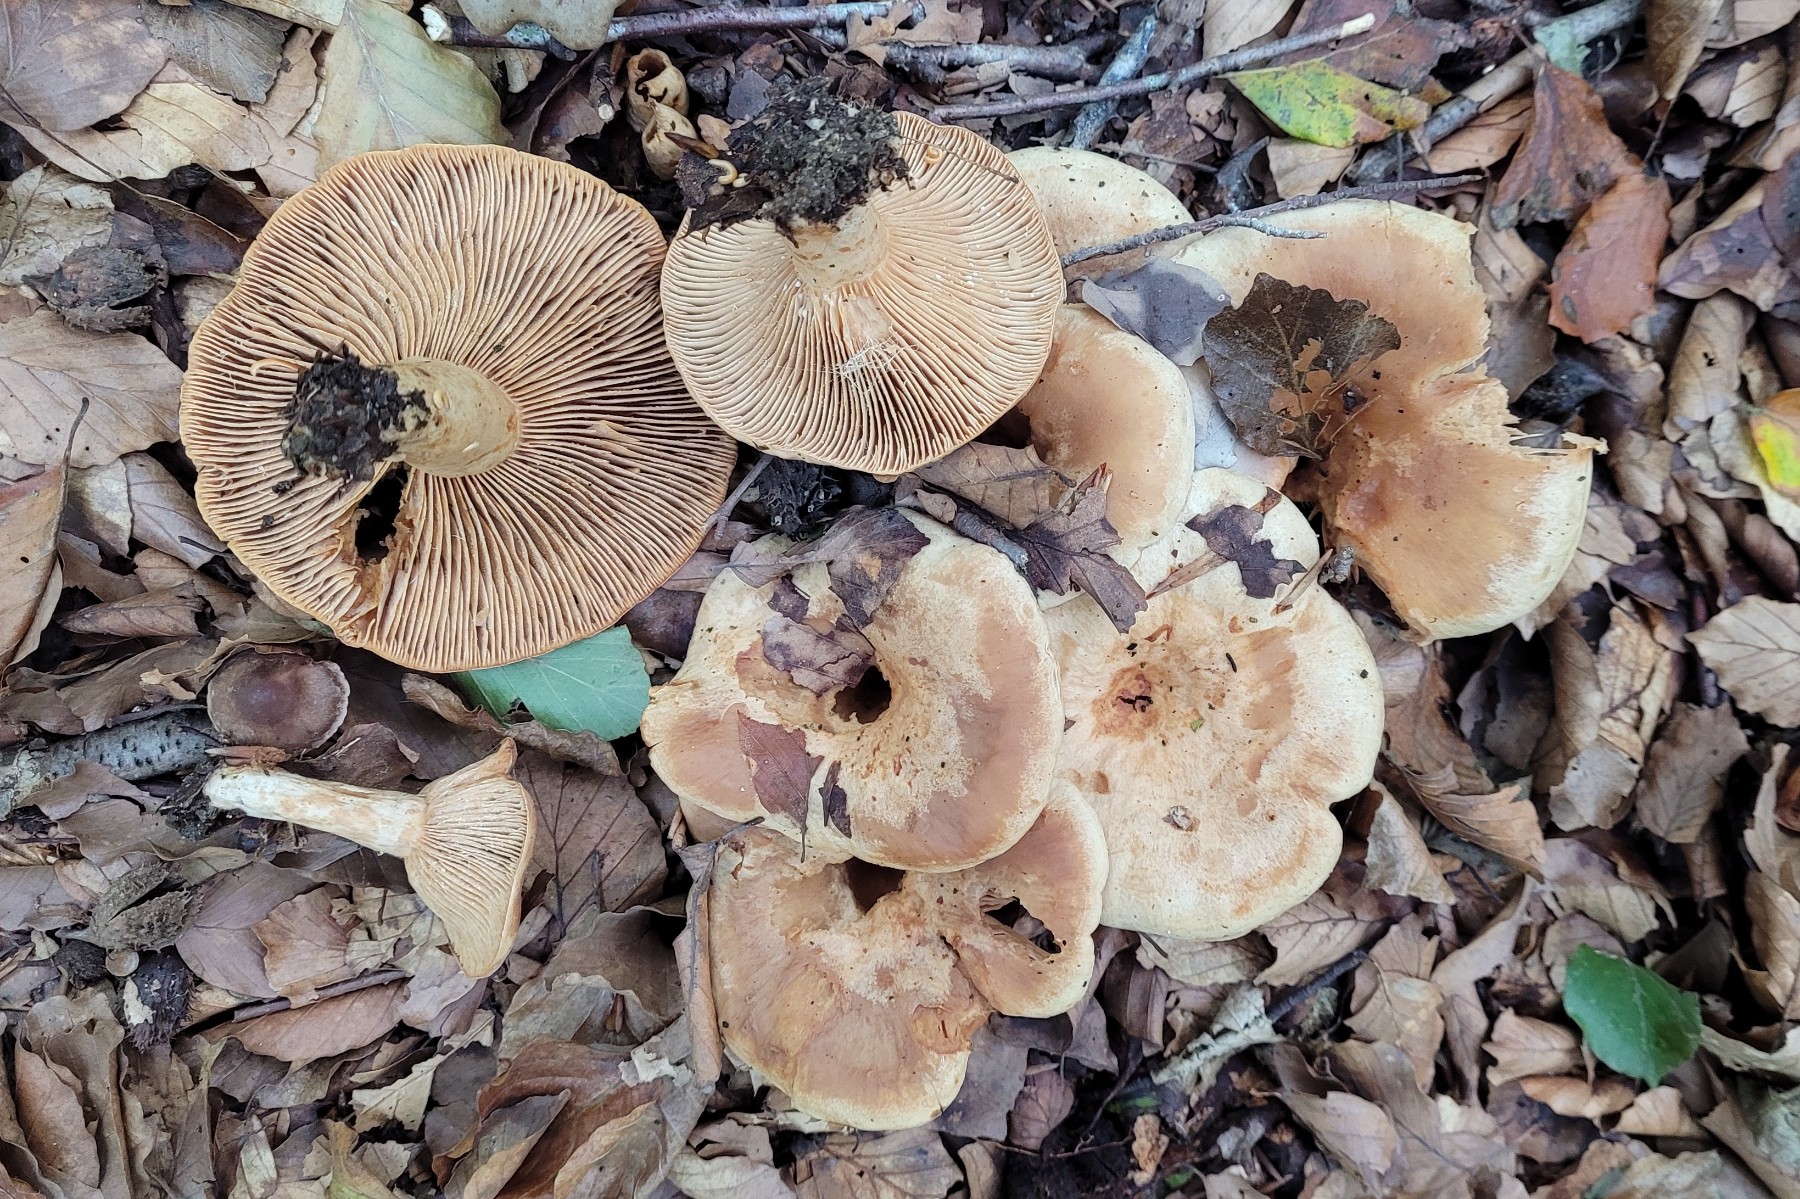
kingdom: Fungi
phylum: Basidiomycota
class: Agaricomycetes
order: Russulales
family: Russulaceae
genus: Lactarius
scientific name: Lactarius pallidus
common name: bleg mælkehat
